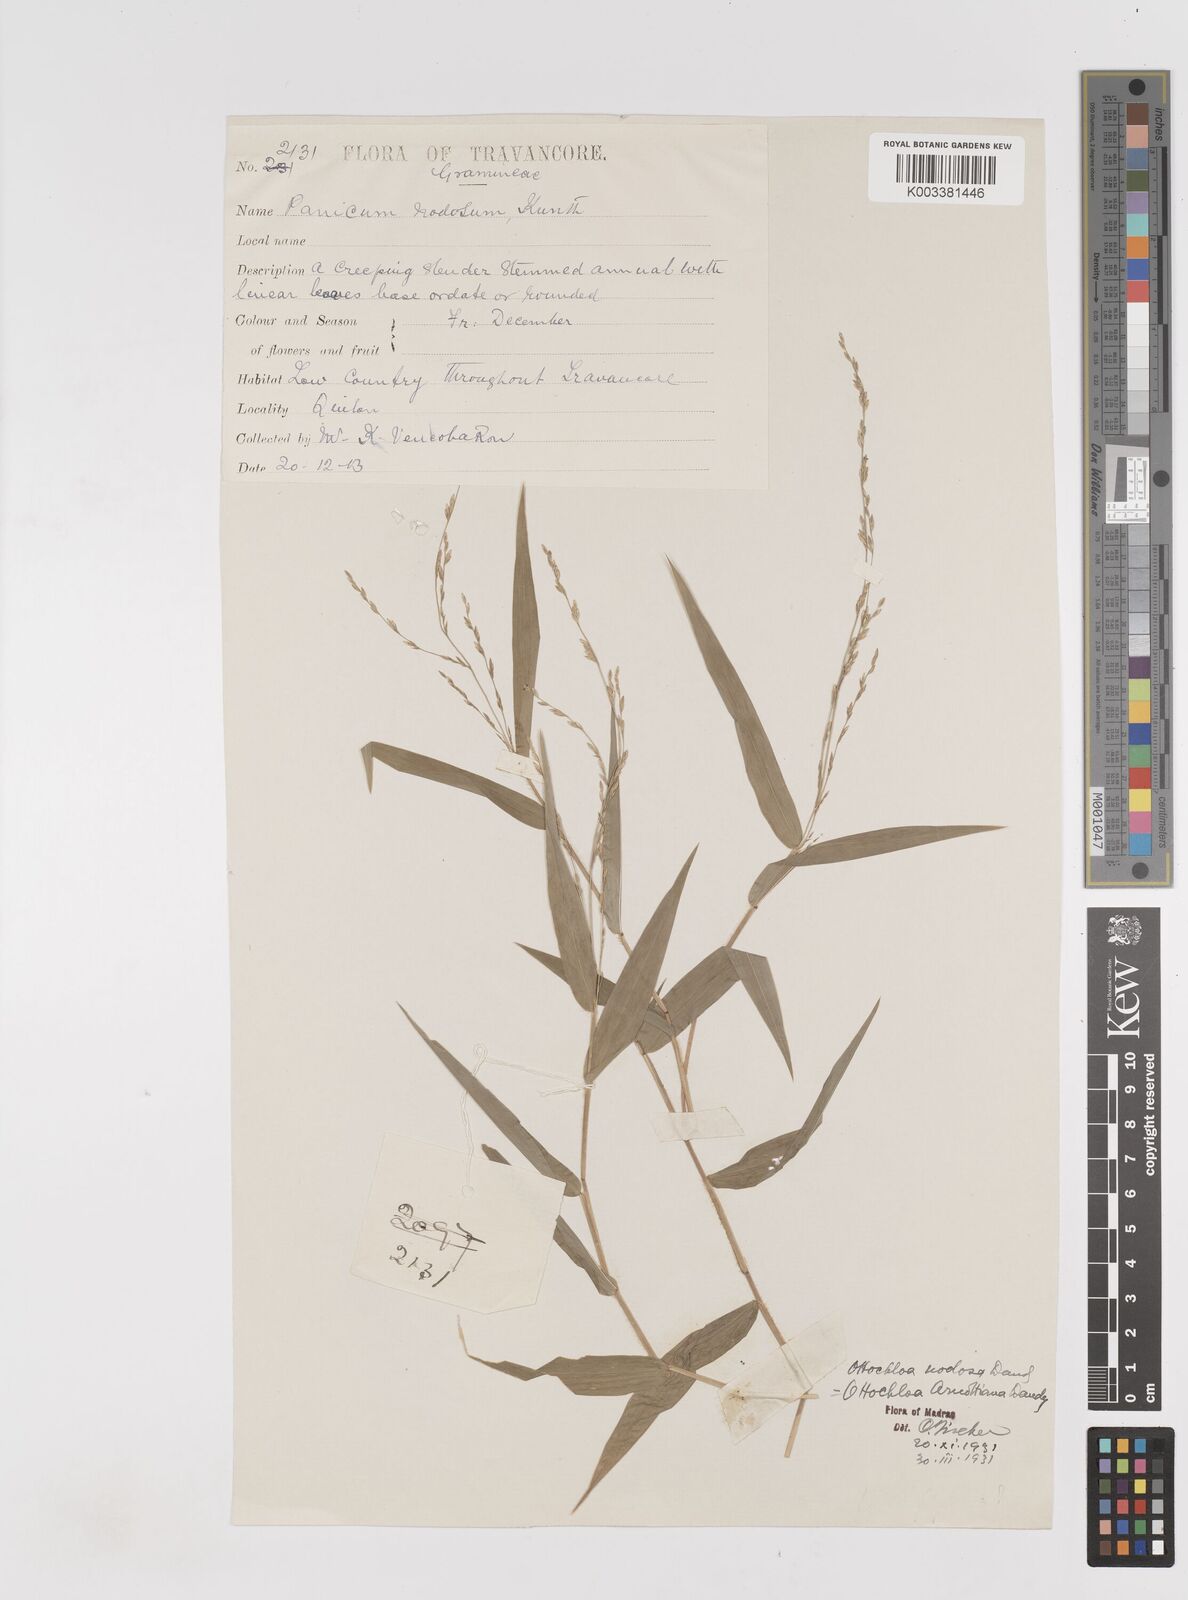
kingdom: Plantae
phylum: Tracheophyta
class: Liliopsida
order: Poales
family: Poaceae
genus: Ottochloa
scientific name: Ottochloa nodosa
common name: Slender-panic grass
